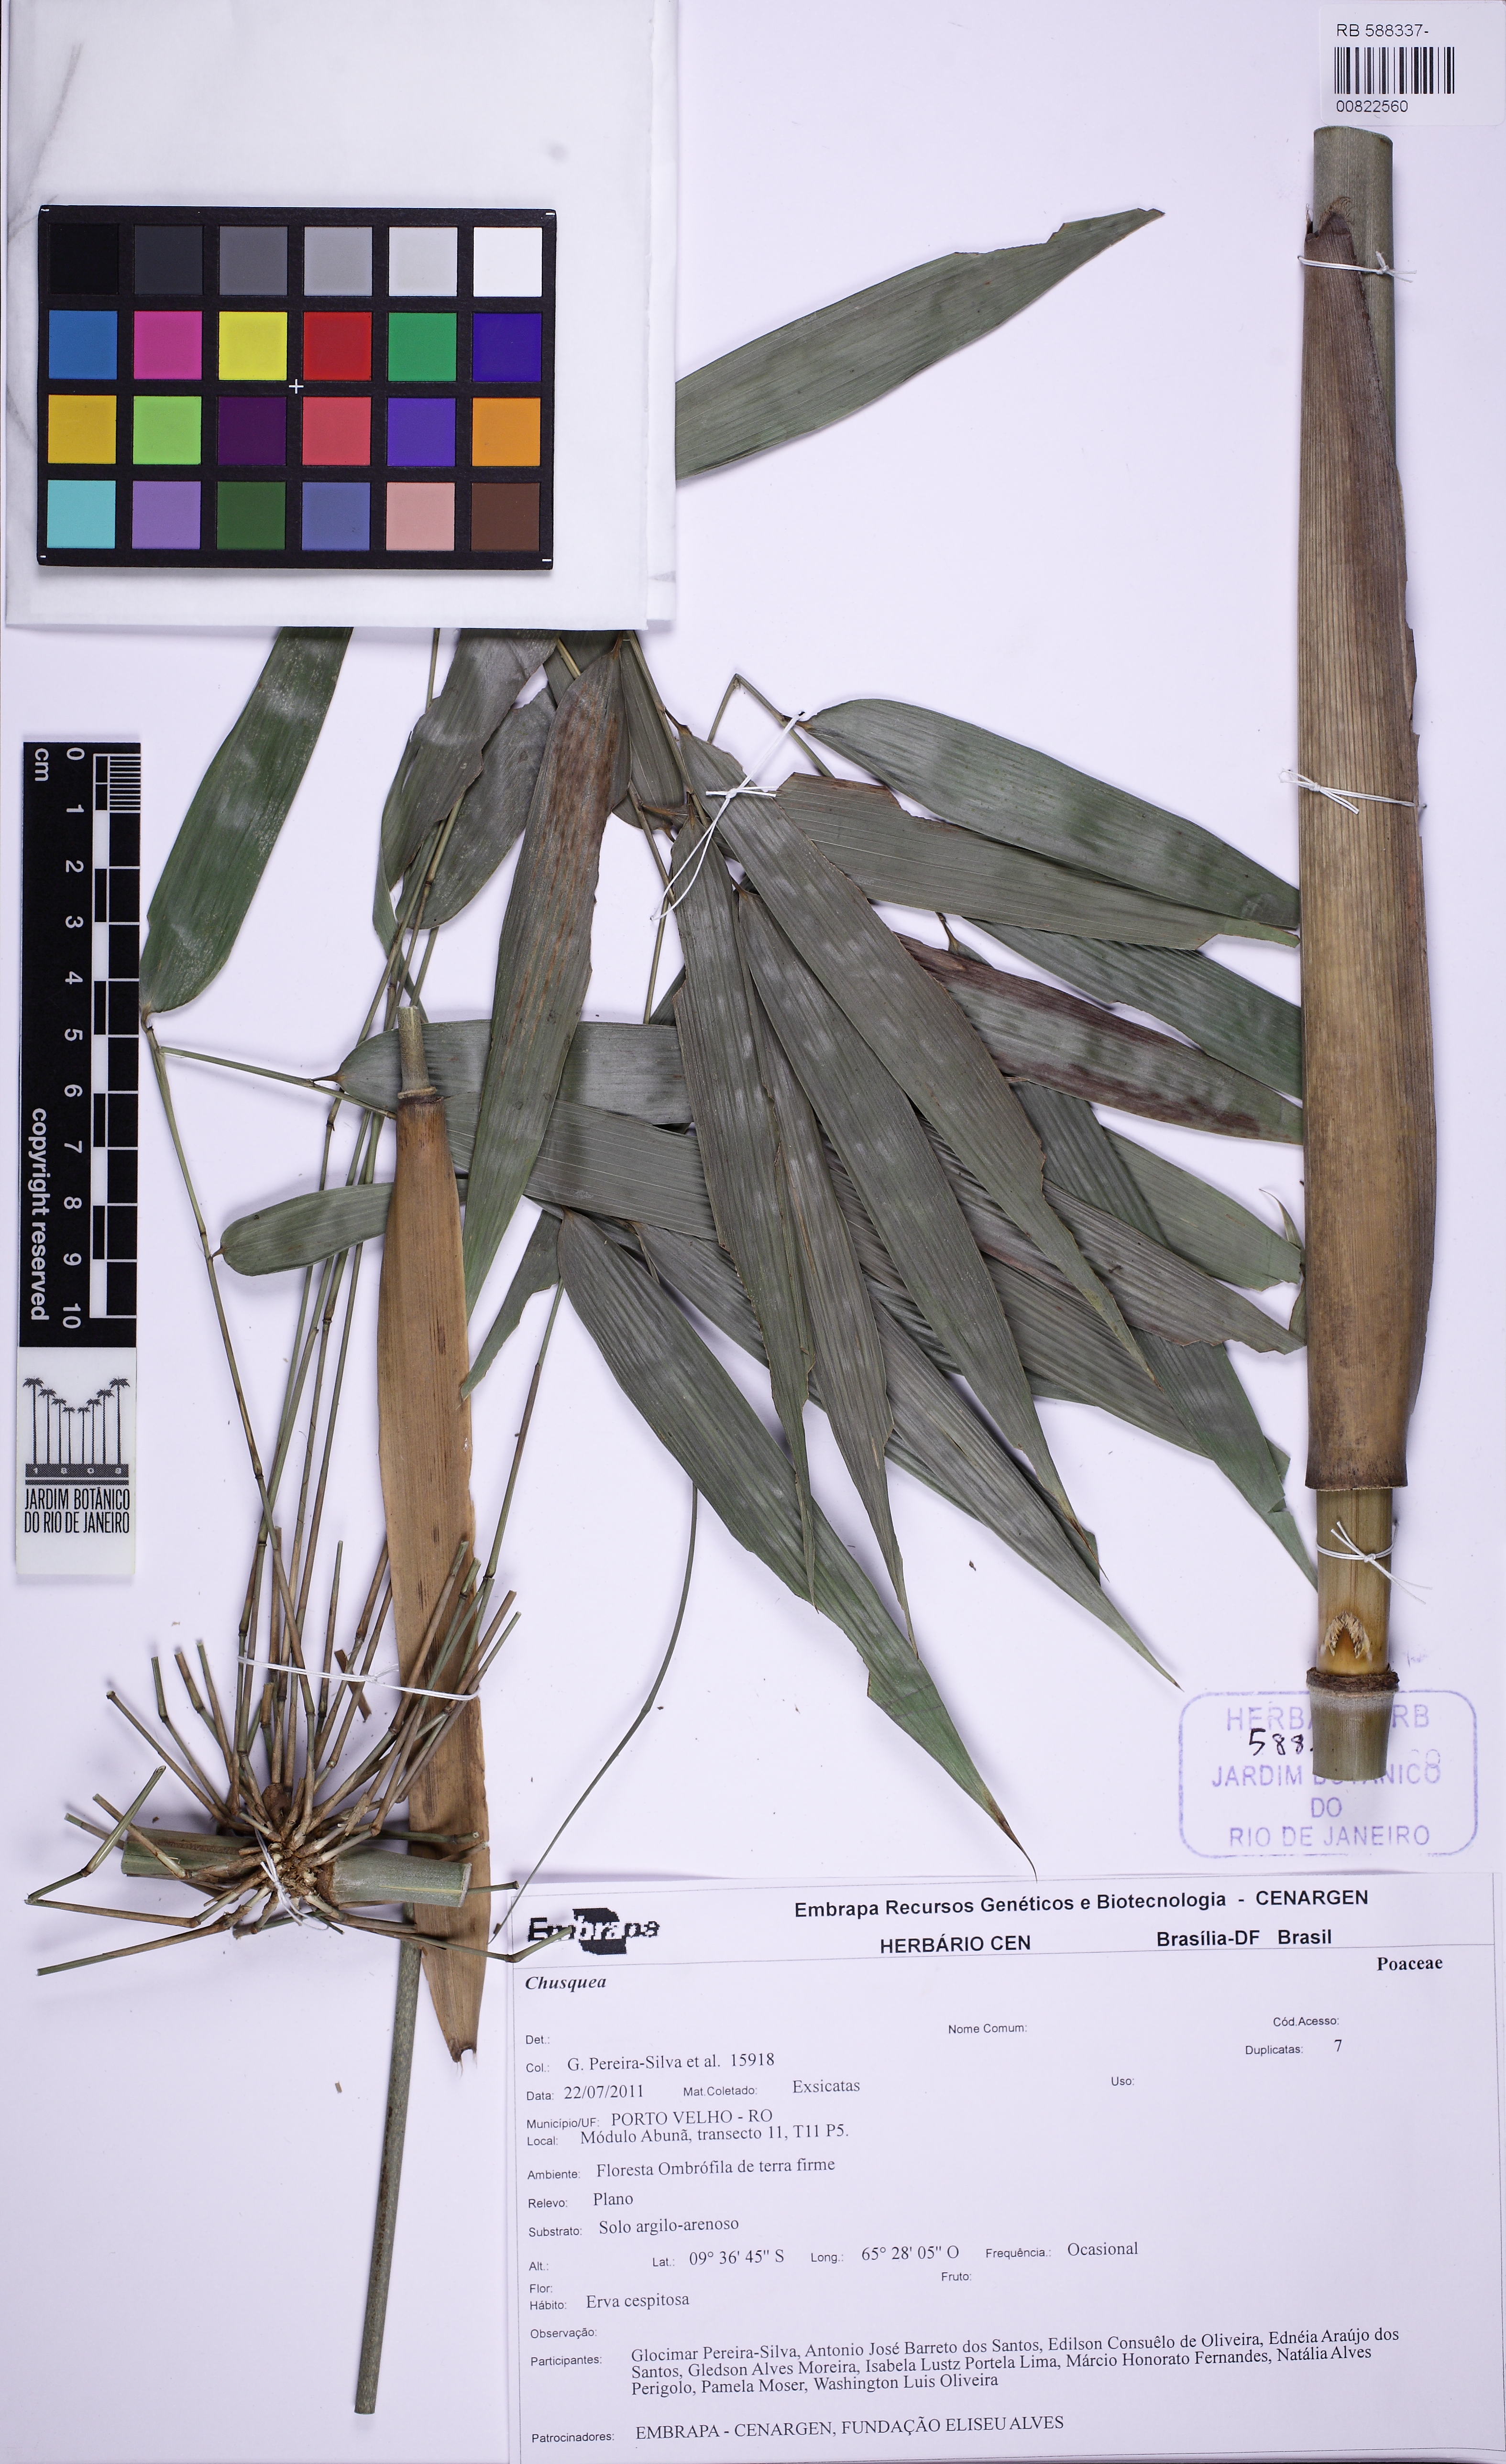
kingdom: Plantae
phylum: Tracheophyta
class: Liliopsida
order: Poales
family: Poaceae
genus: Merostachys
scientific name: Merostachys
